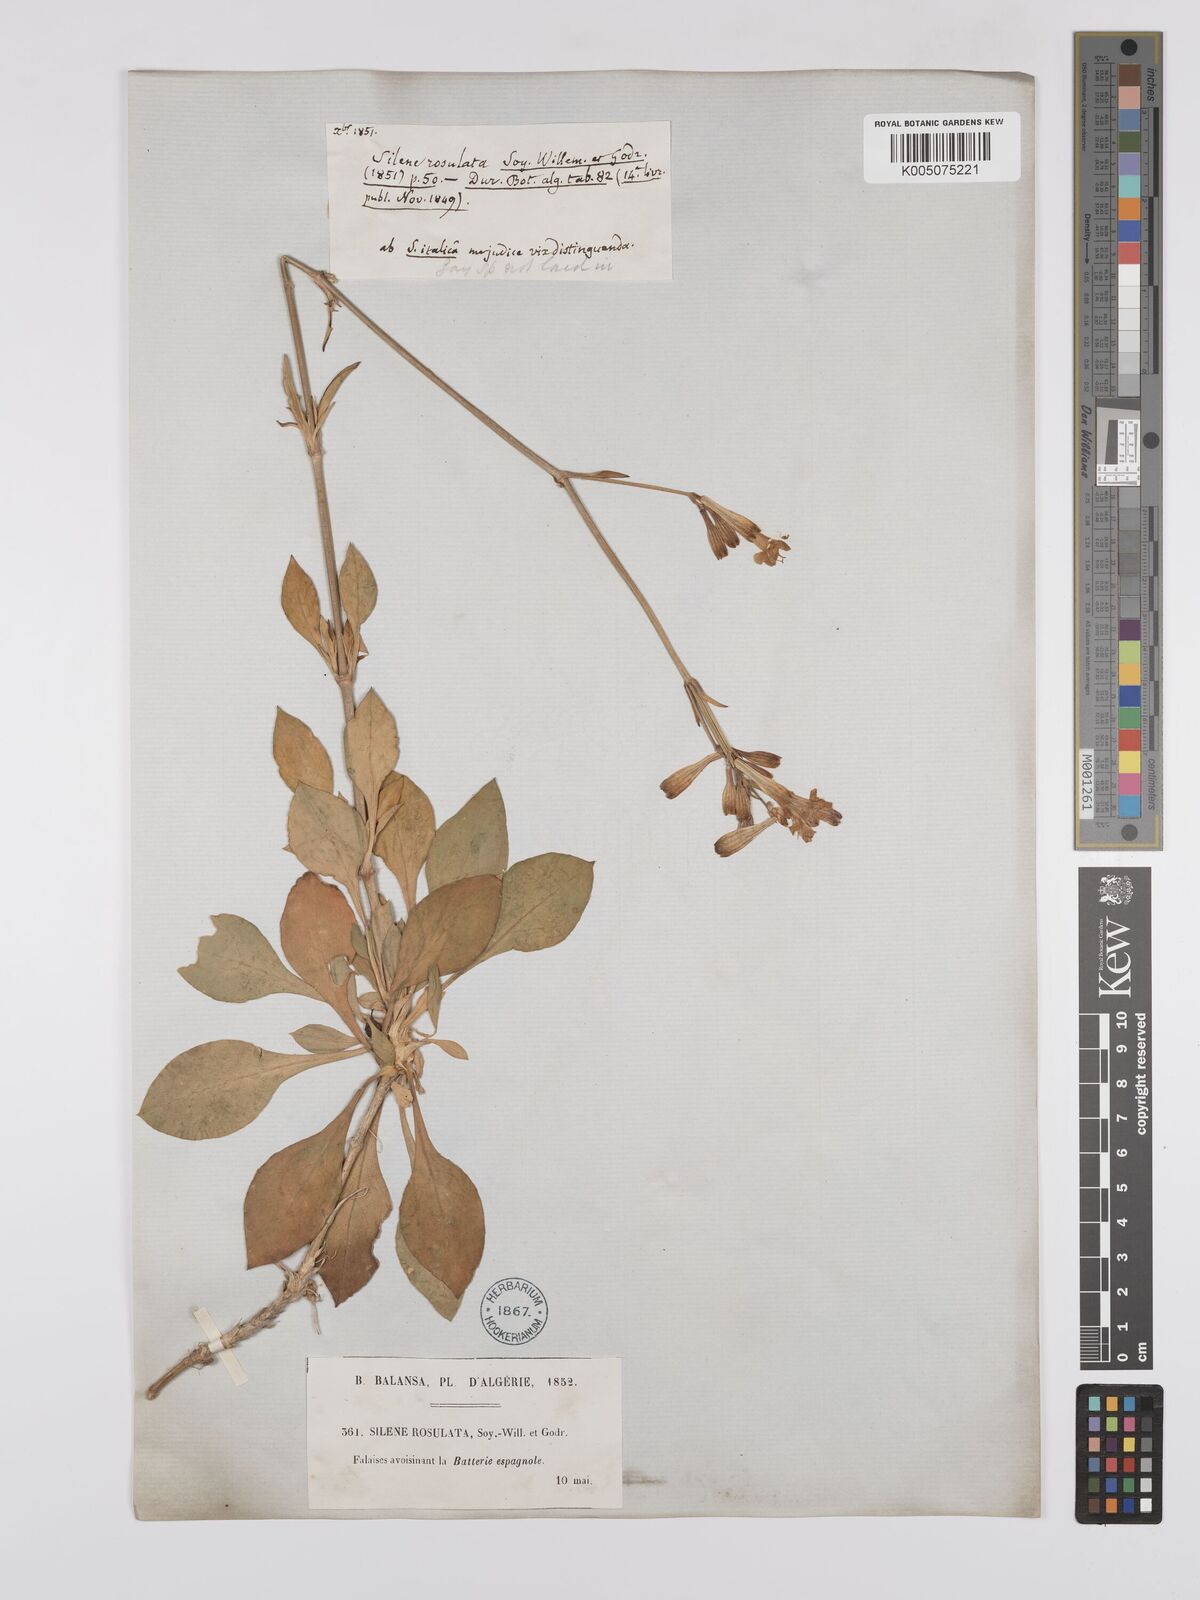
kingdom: Plantae
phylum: Tracheophyta
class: Magnoliopsida
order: Caryophyllales
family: Caryophyllaceae
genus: Silene
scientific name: Silene rosulata
